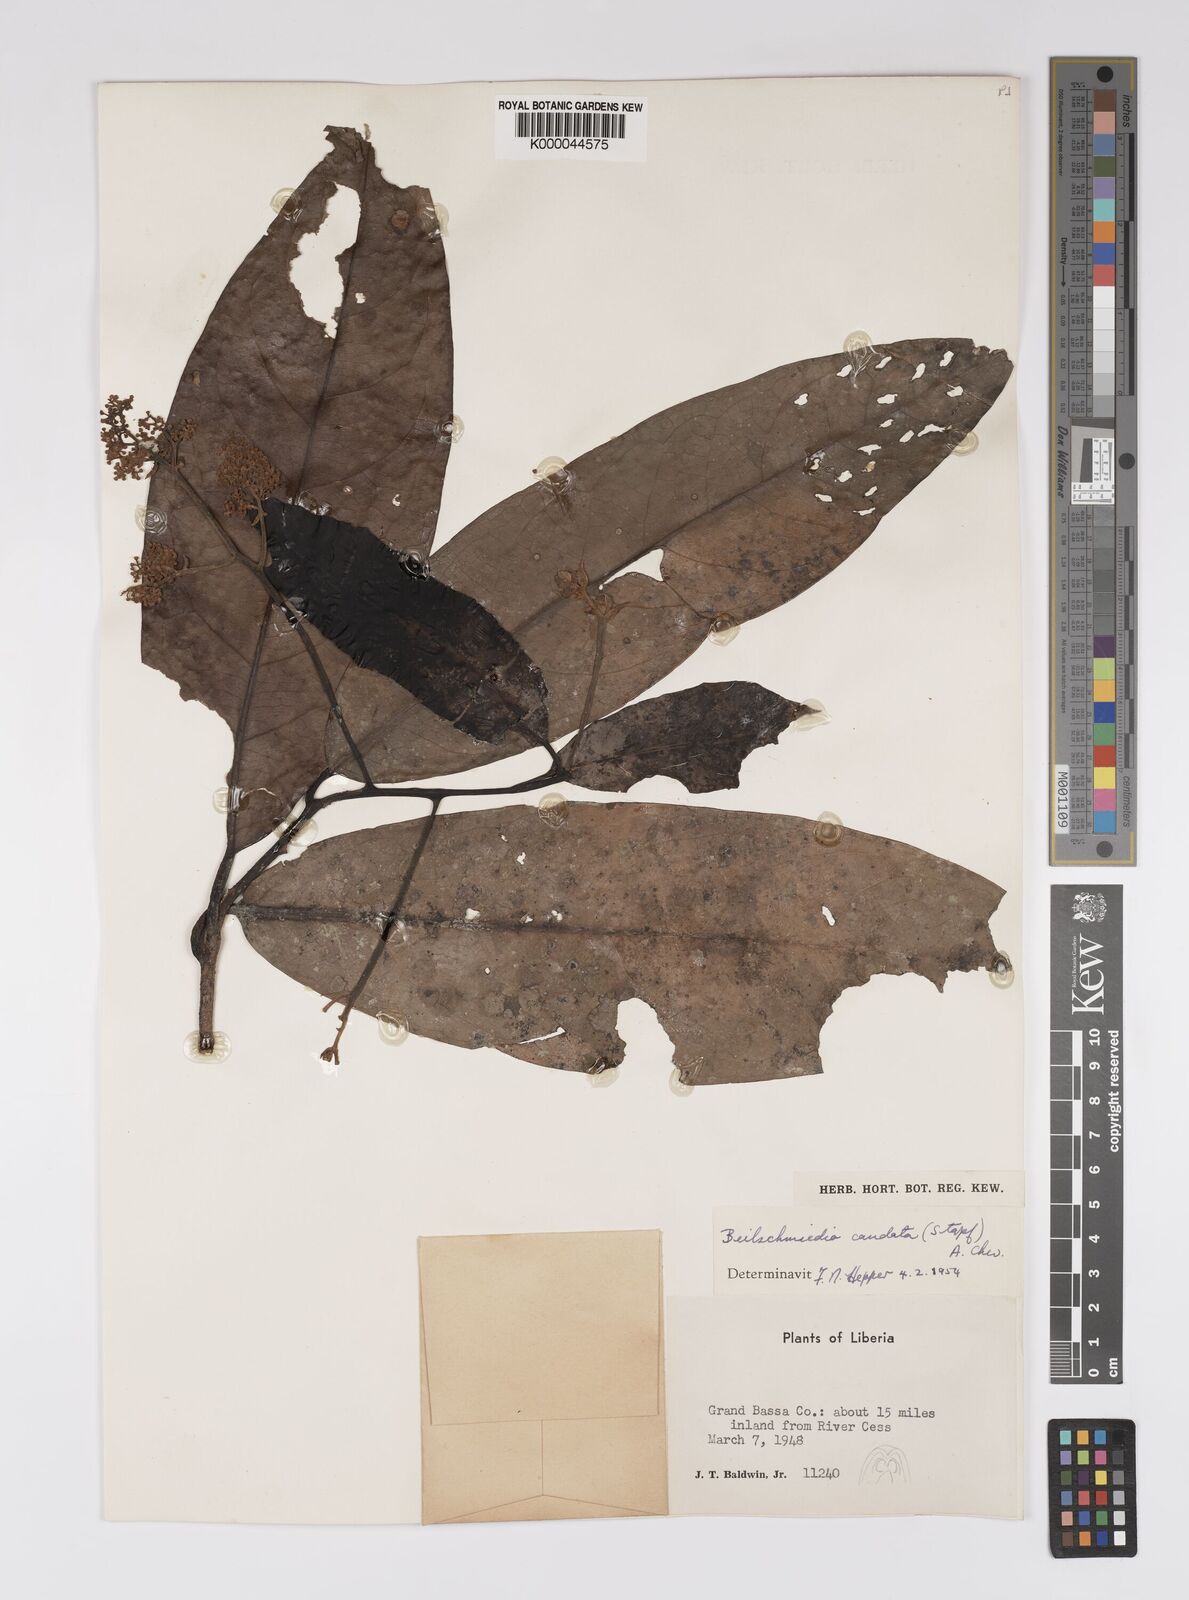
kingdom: Plantae
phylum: Tracheophyta
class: Magnoliopsida
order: Laurales
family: Lauraceae
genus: Beilschmiedia
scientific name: Beilschmiedia caudata
